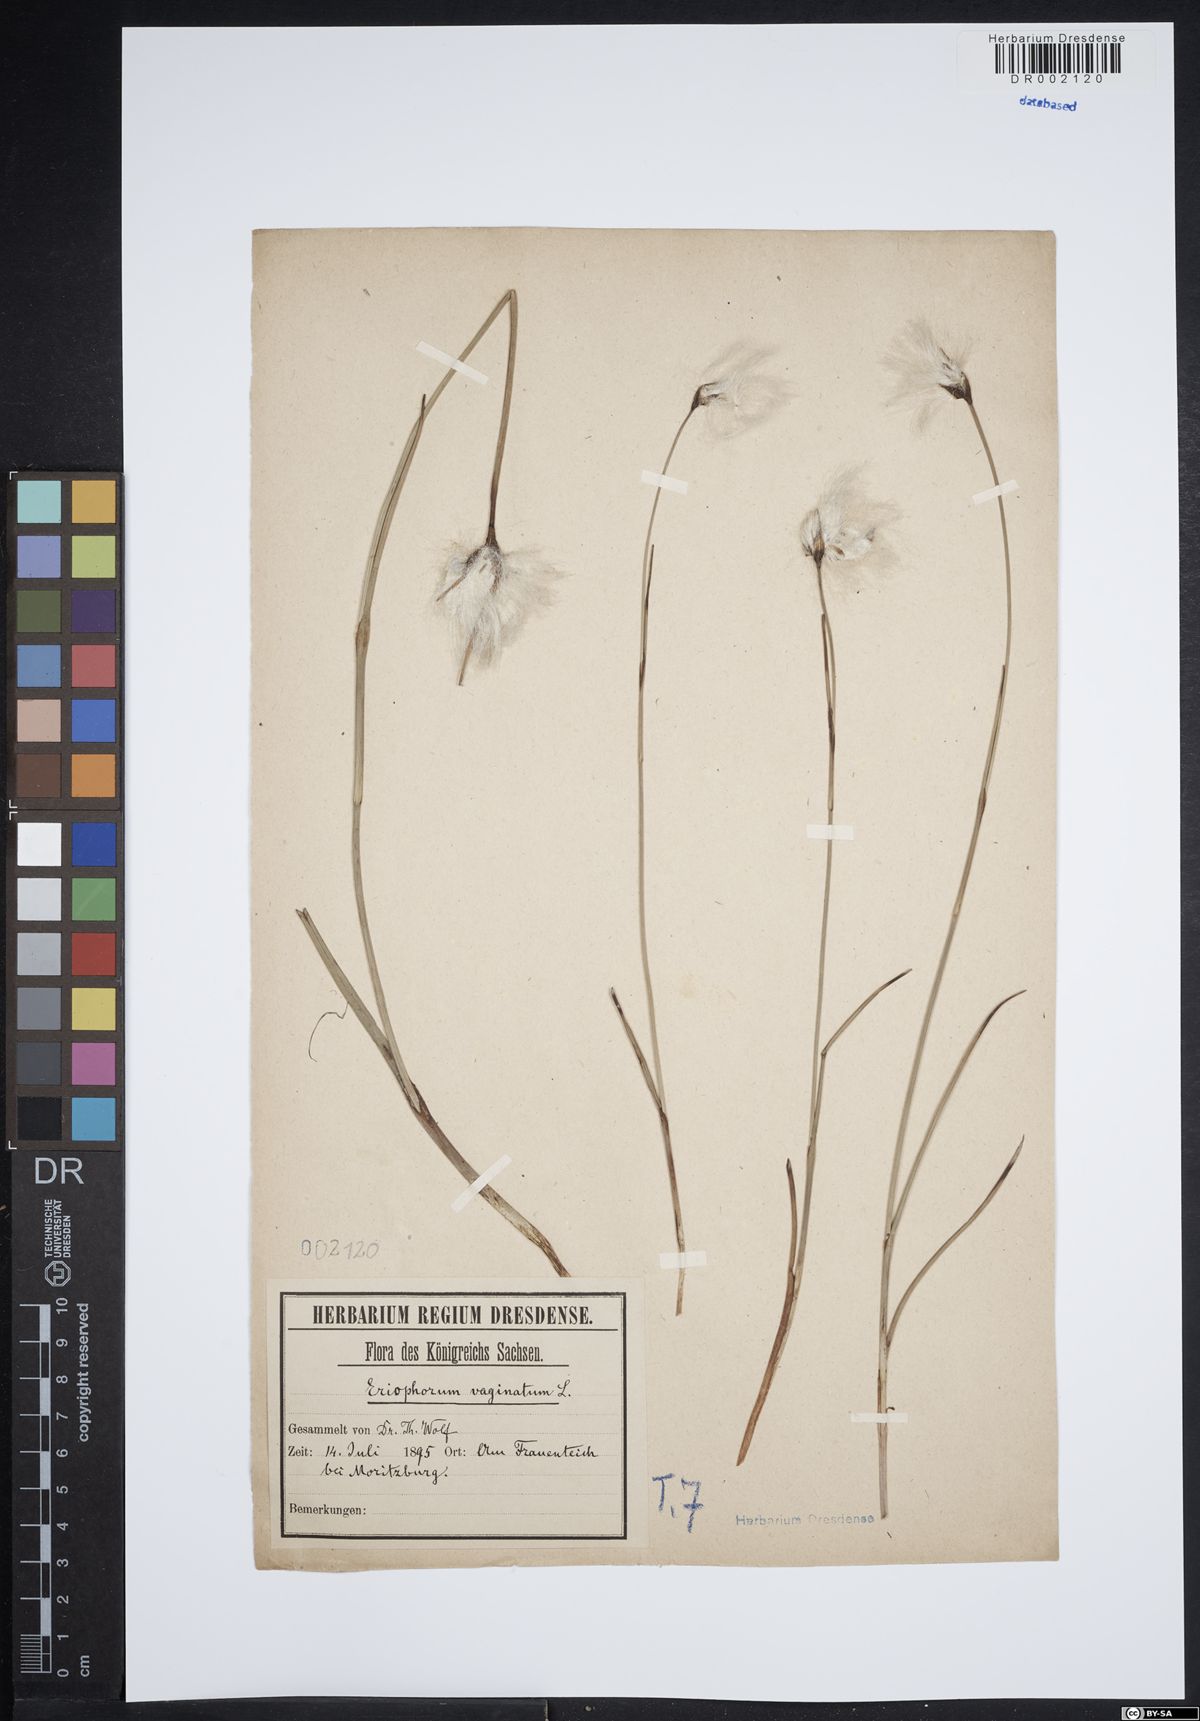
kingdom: Plantae
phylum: Tracheophyta
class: Liliopsida
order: Poales
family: Cyperaceae
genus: Eriophorum
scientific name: Eriophorum vaginatum
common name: Hare's-tail cottongrass
